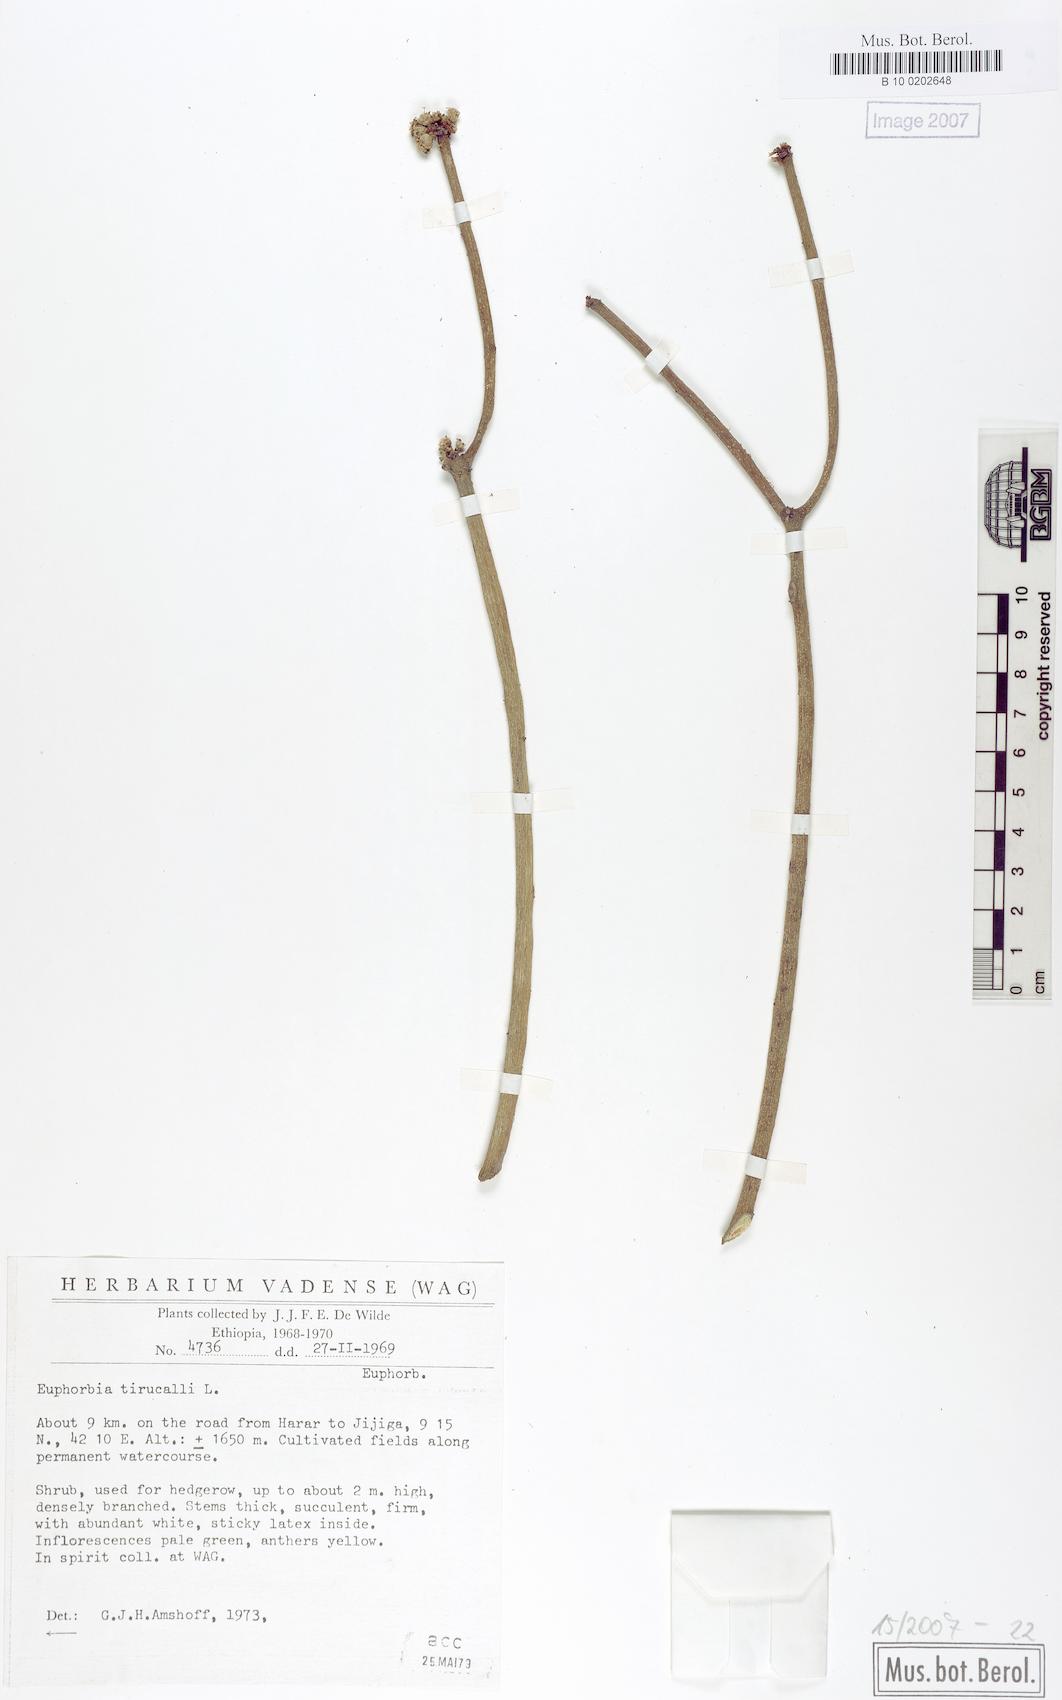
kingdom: Plantae
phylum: Tracheophyta
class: Magnoliopsida
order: Malpighiales
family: Euphorbiaceae
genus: Euphorbia
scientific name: Euphorbia tirucalli
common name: Indiantree spurge
